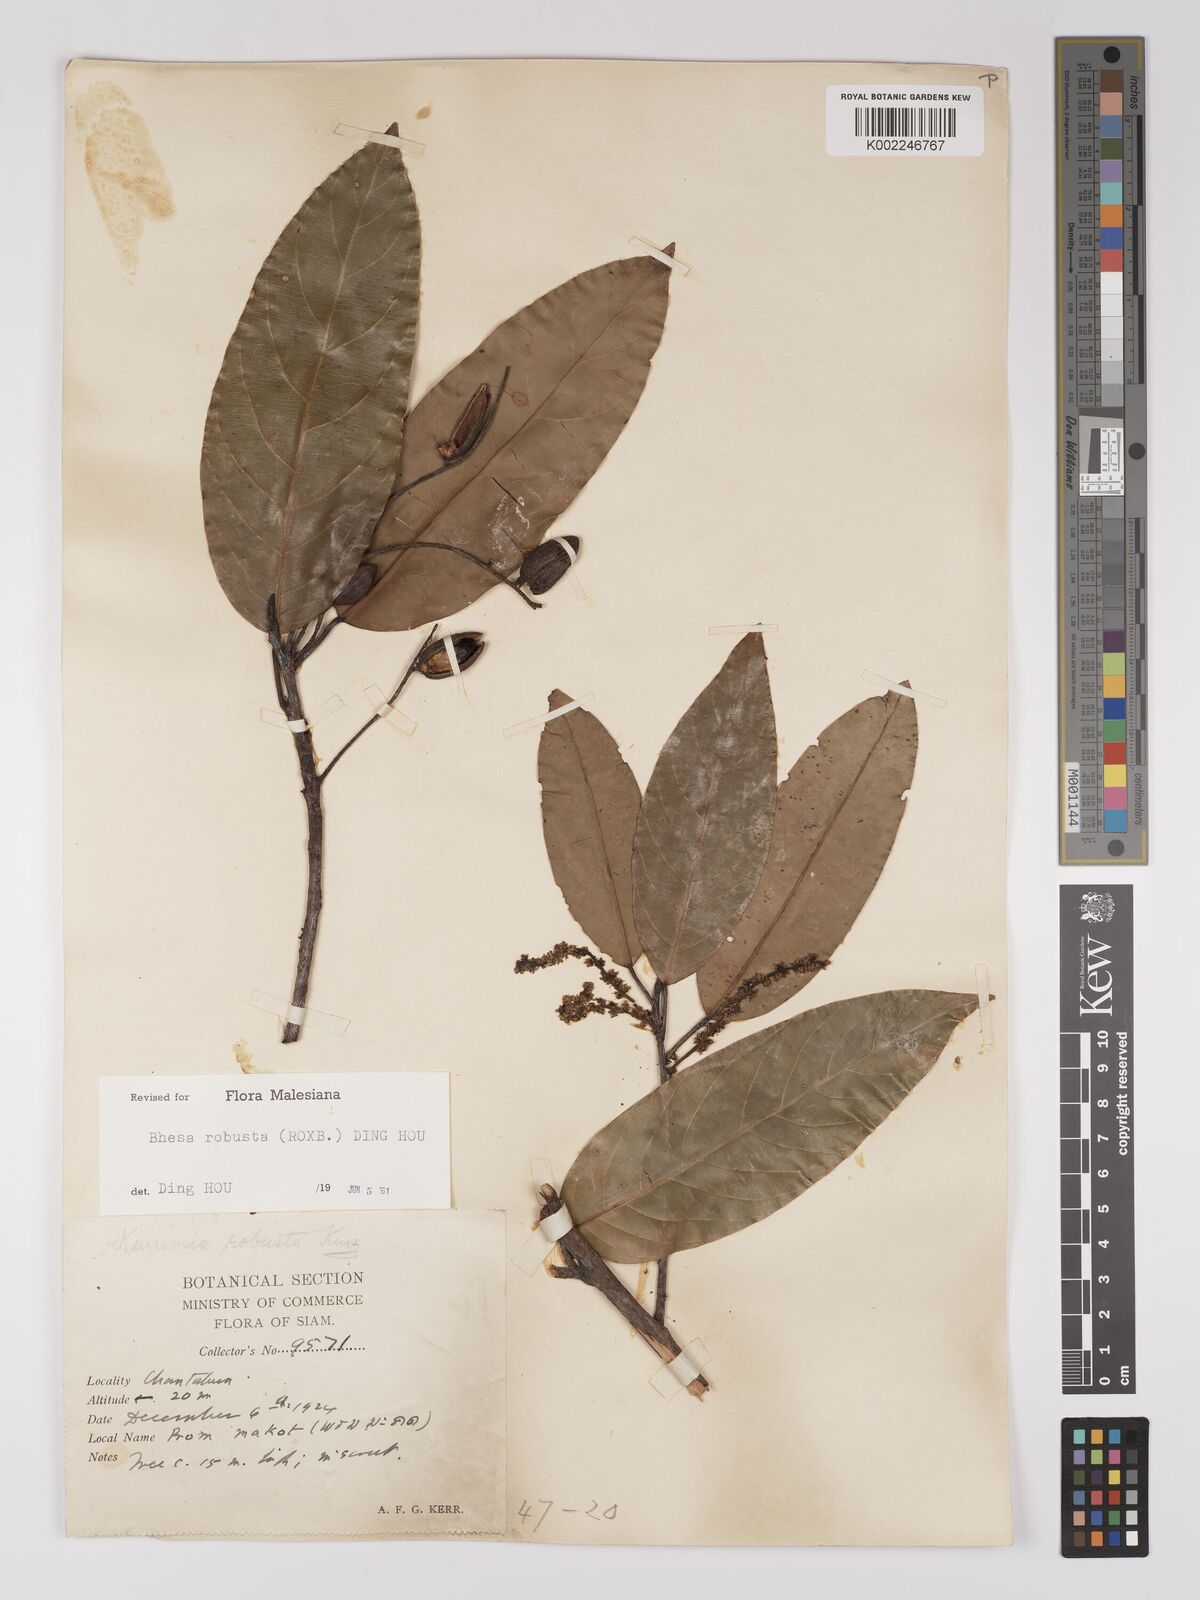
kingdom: Plantae
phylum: Tracheophyta
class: Magnoliopsida
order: Malpighiales
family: Centroplacaceae
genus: Bhesa
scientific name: Bhesa robusta
